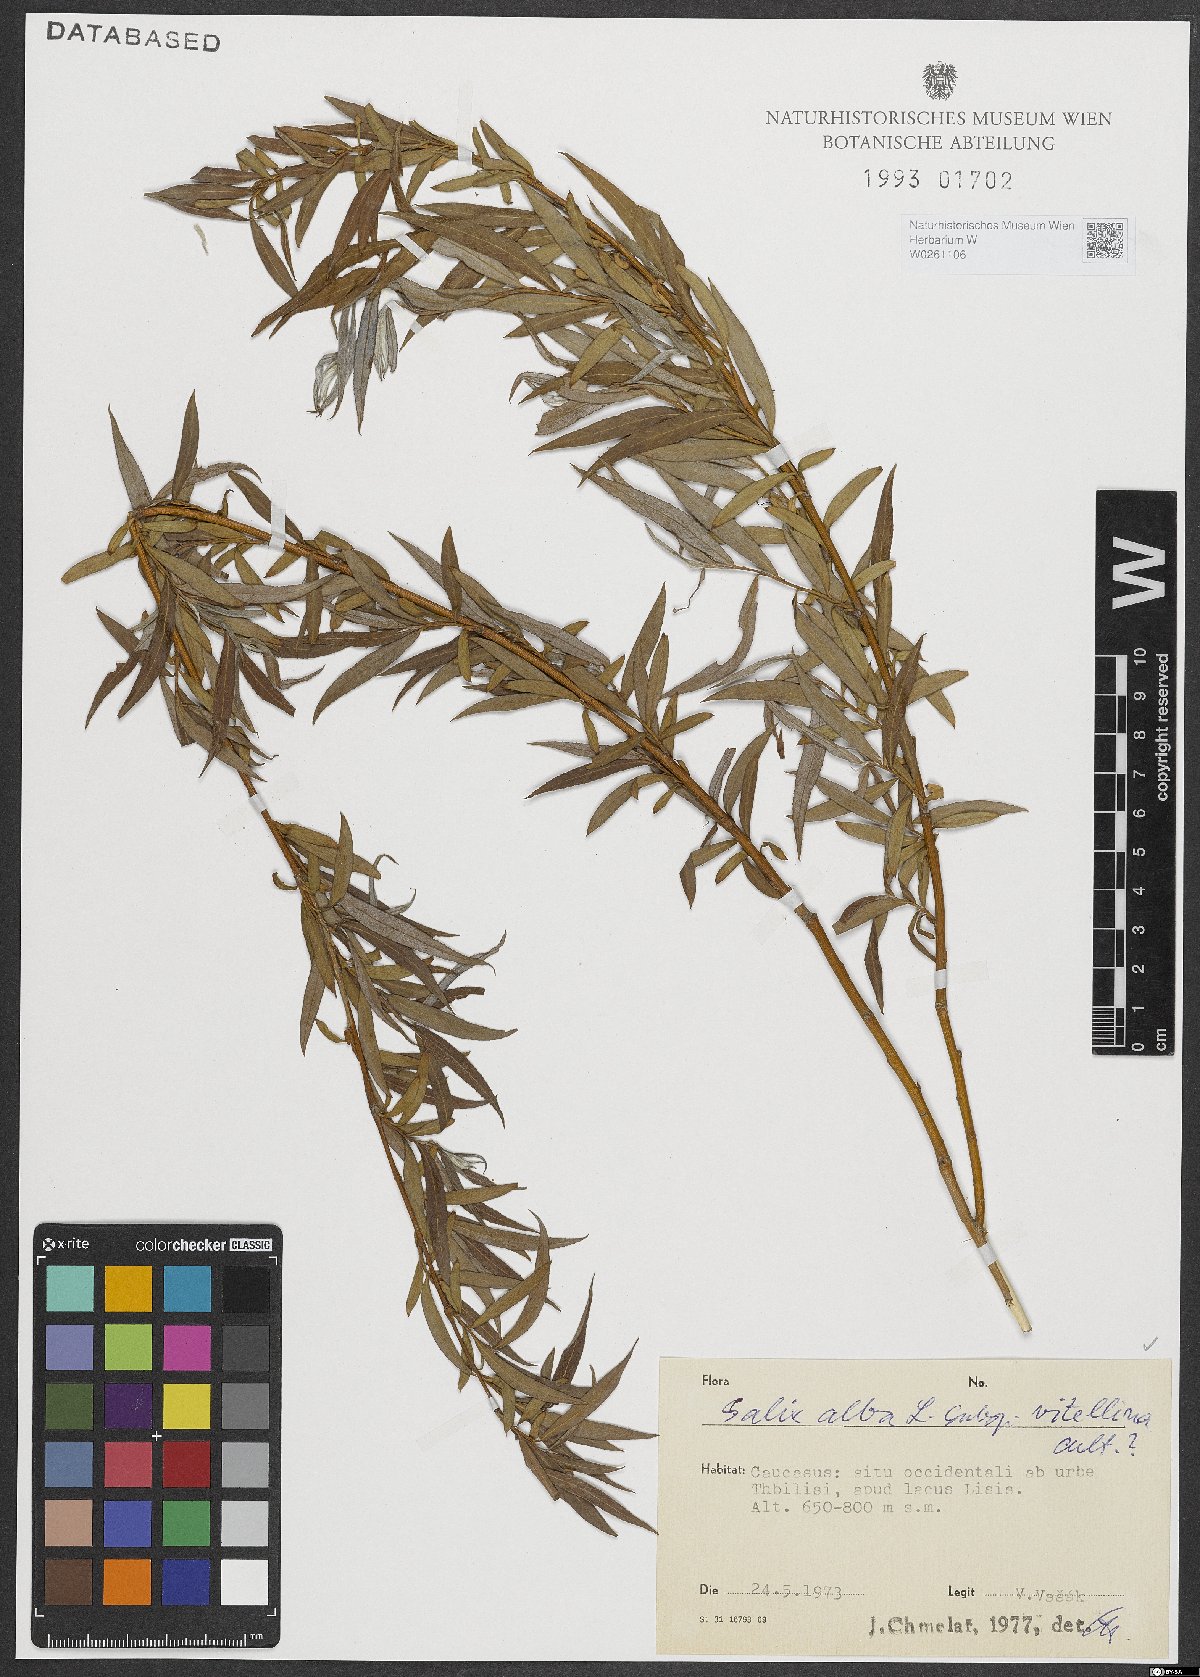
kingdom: Plantae
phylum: Tracheophyta
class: Magnoliopsida
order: Malpighiales
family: Salicaceae
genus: Salix
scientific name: Salix alba
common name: White willow
